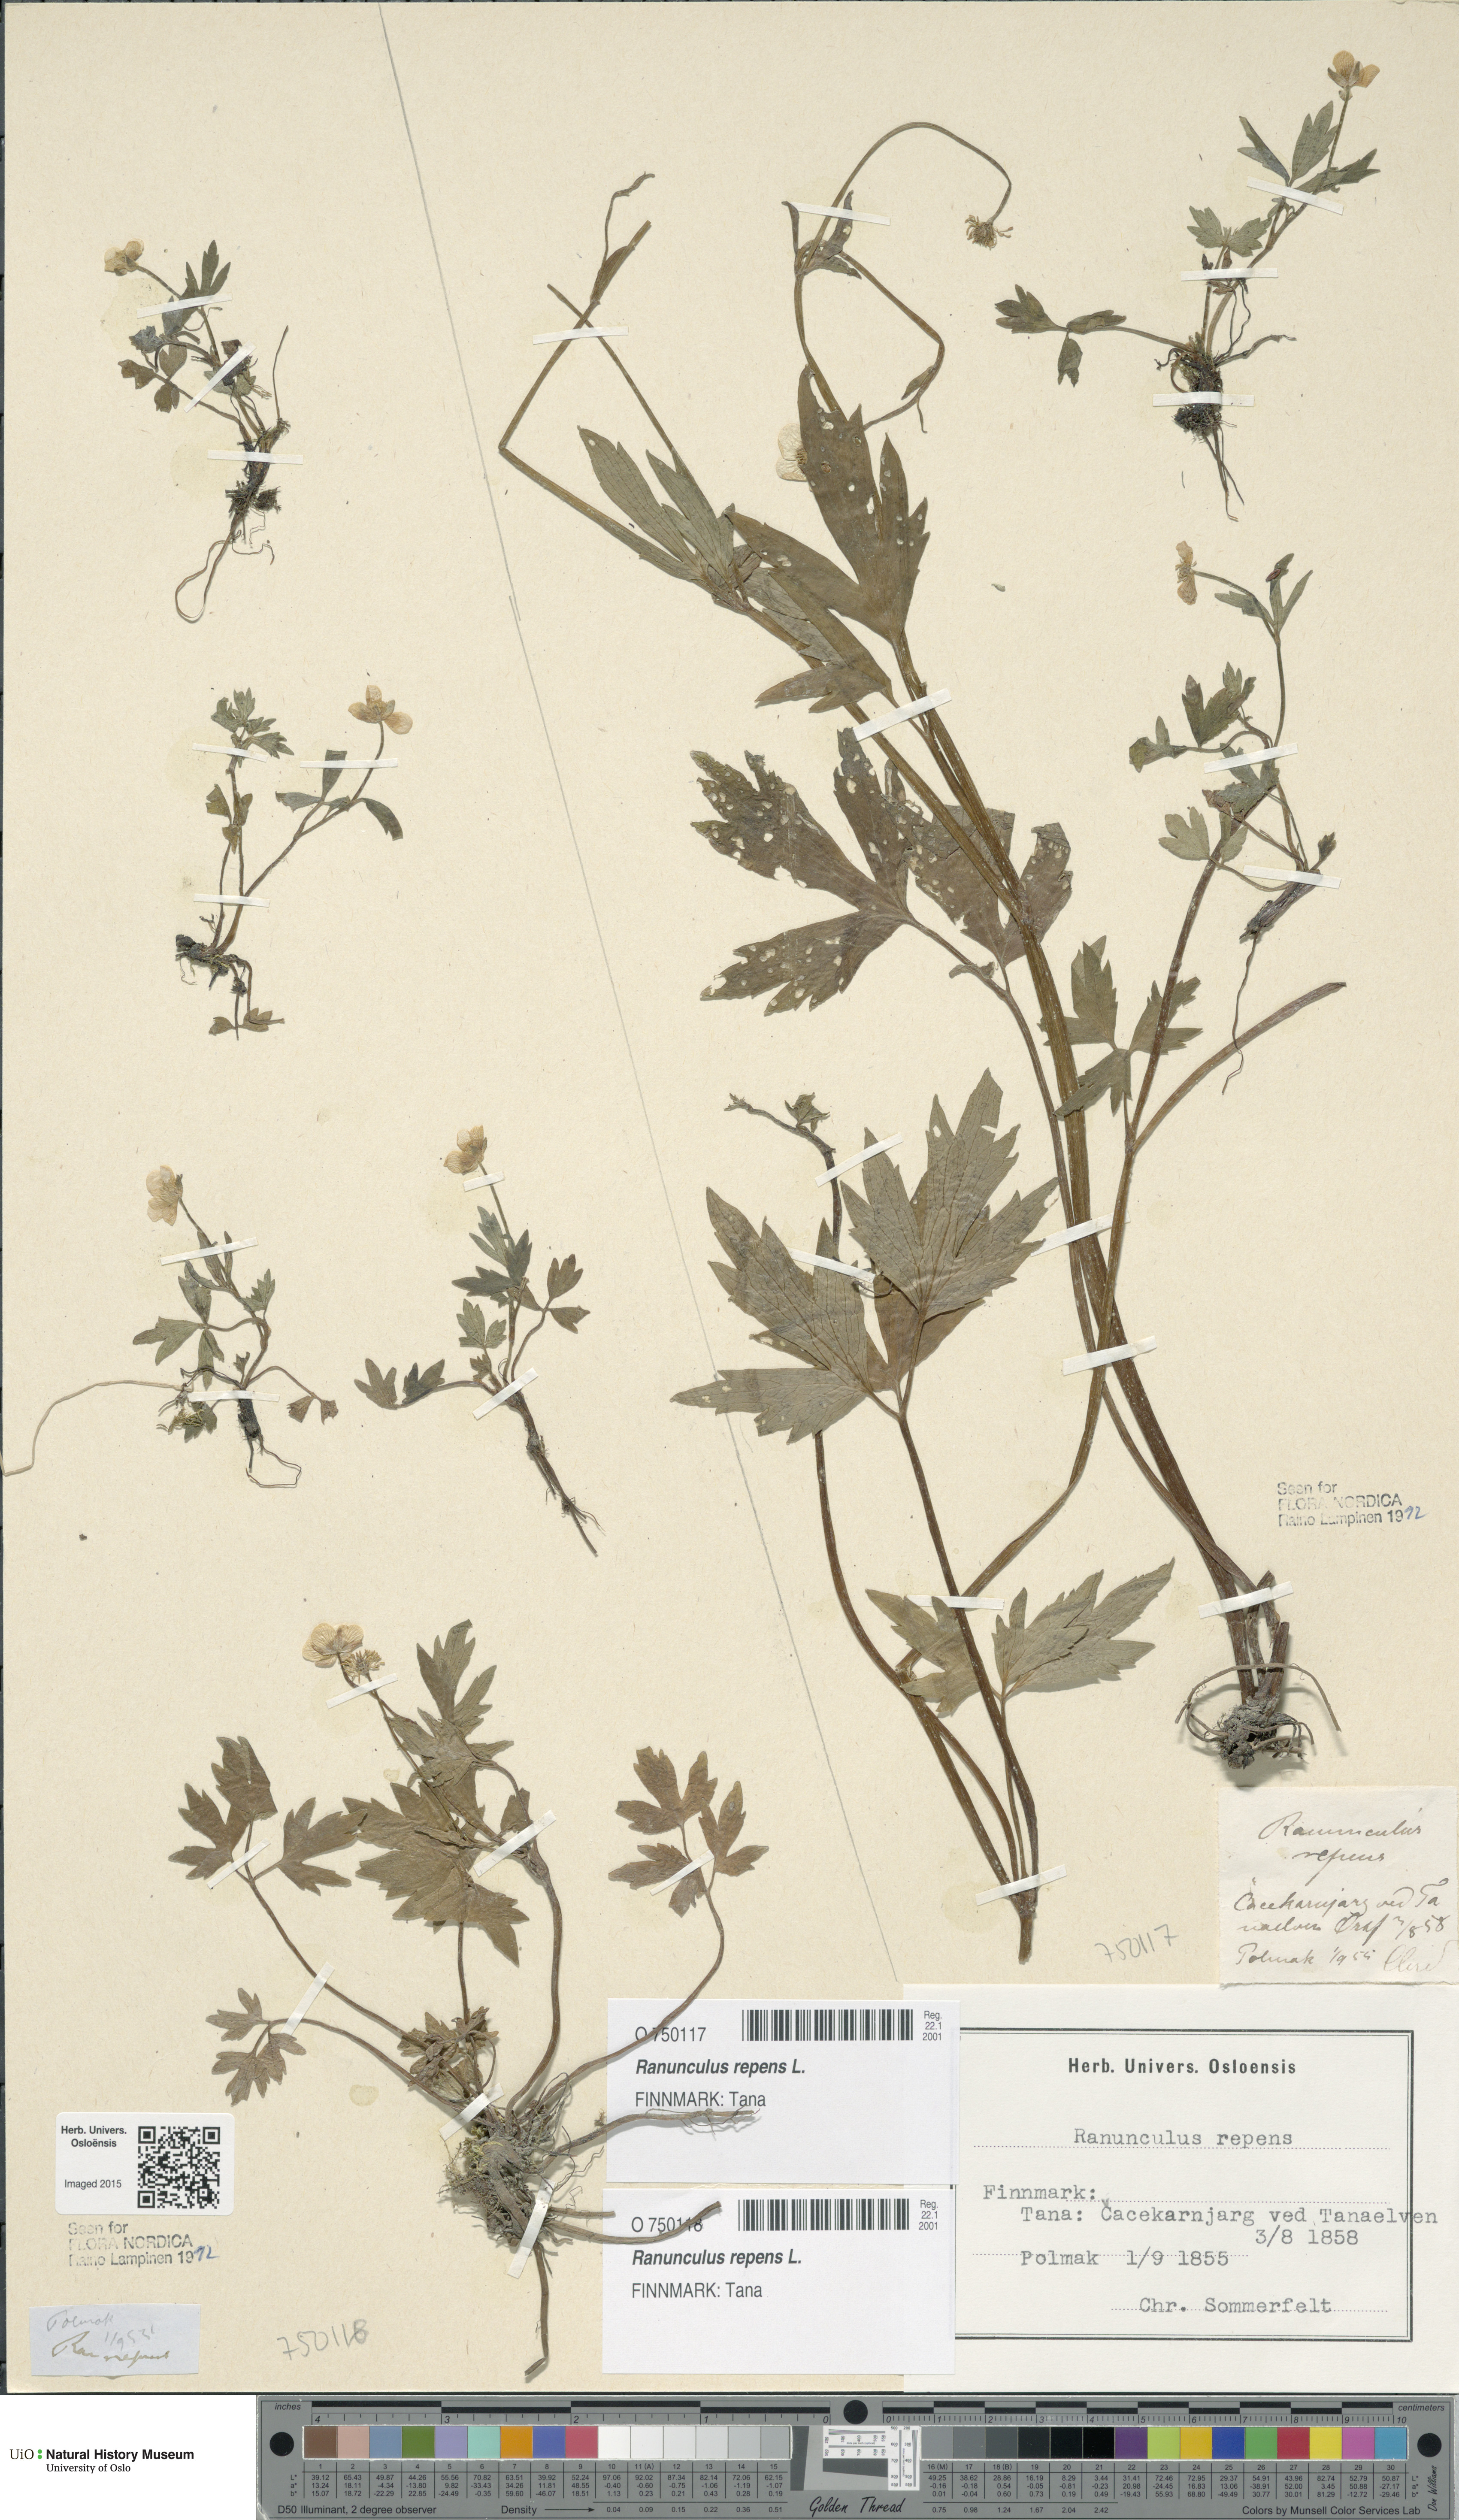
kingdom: Plantae
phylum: Tracheophyta
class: Magnoliopsida
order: Ranunculales
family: Ranunculaceae
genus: Ranunculus
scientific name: Ranunculus repens
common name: Creeping buttercup
